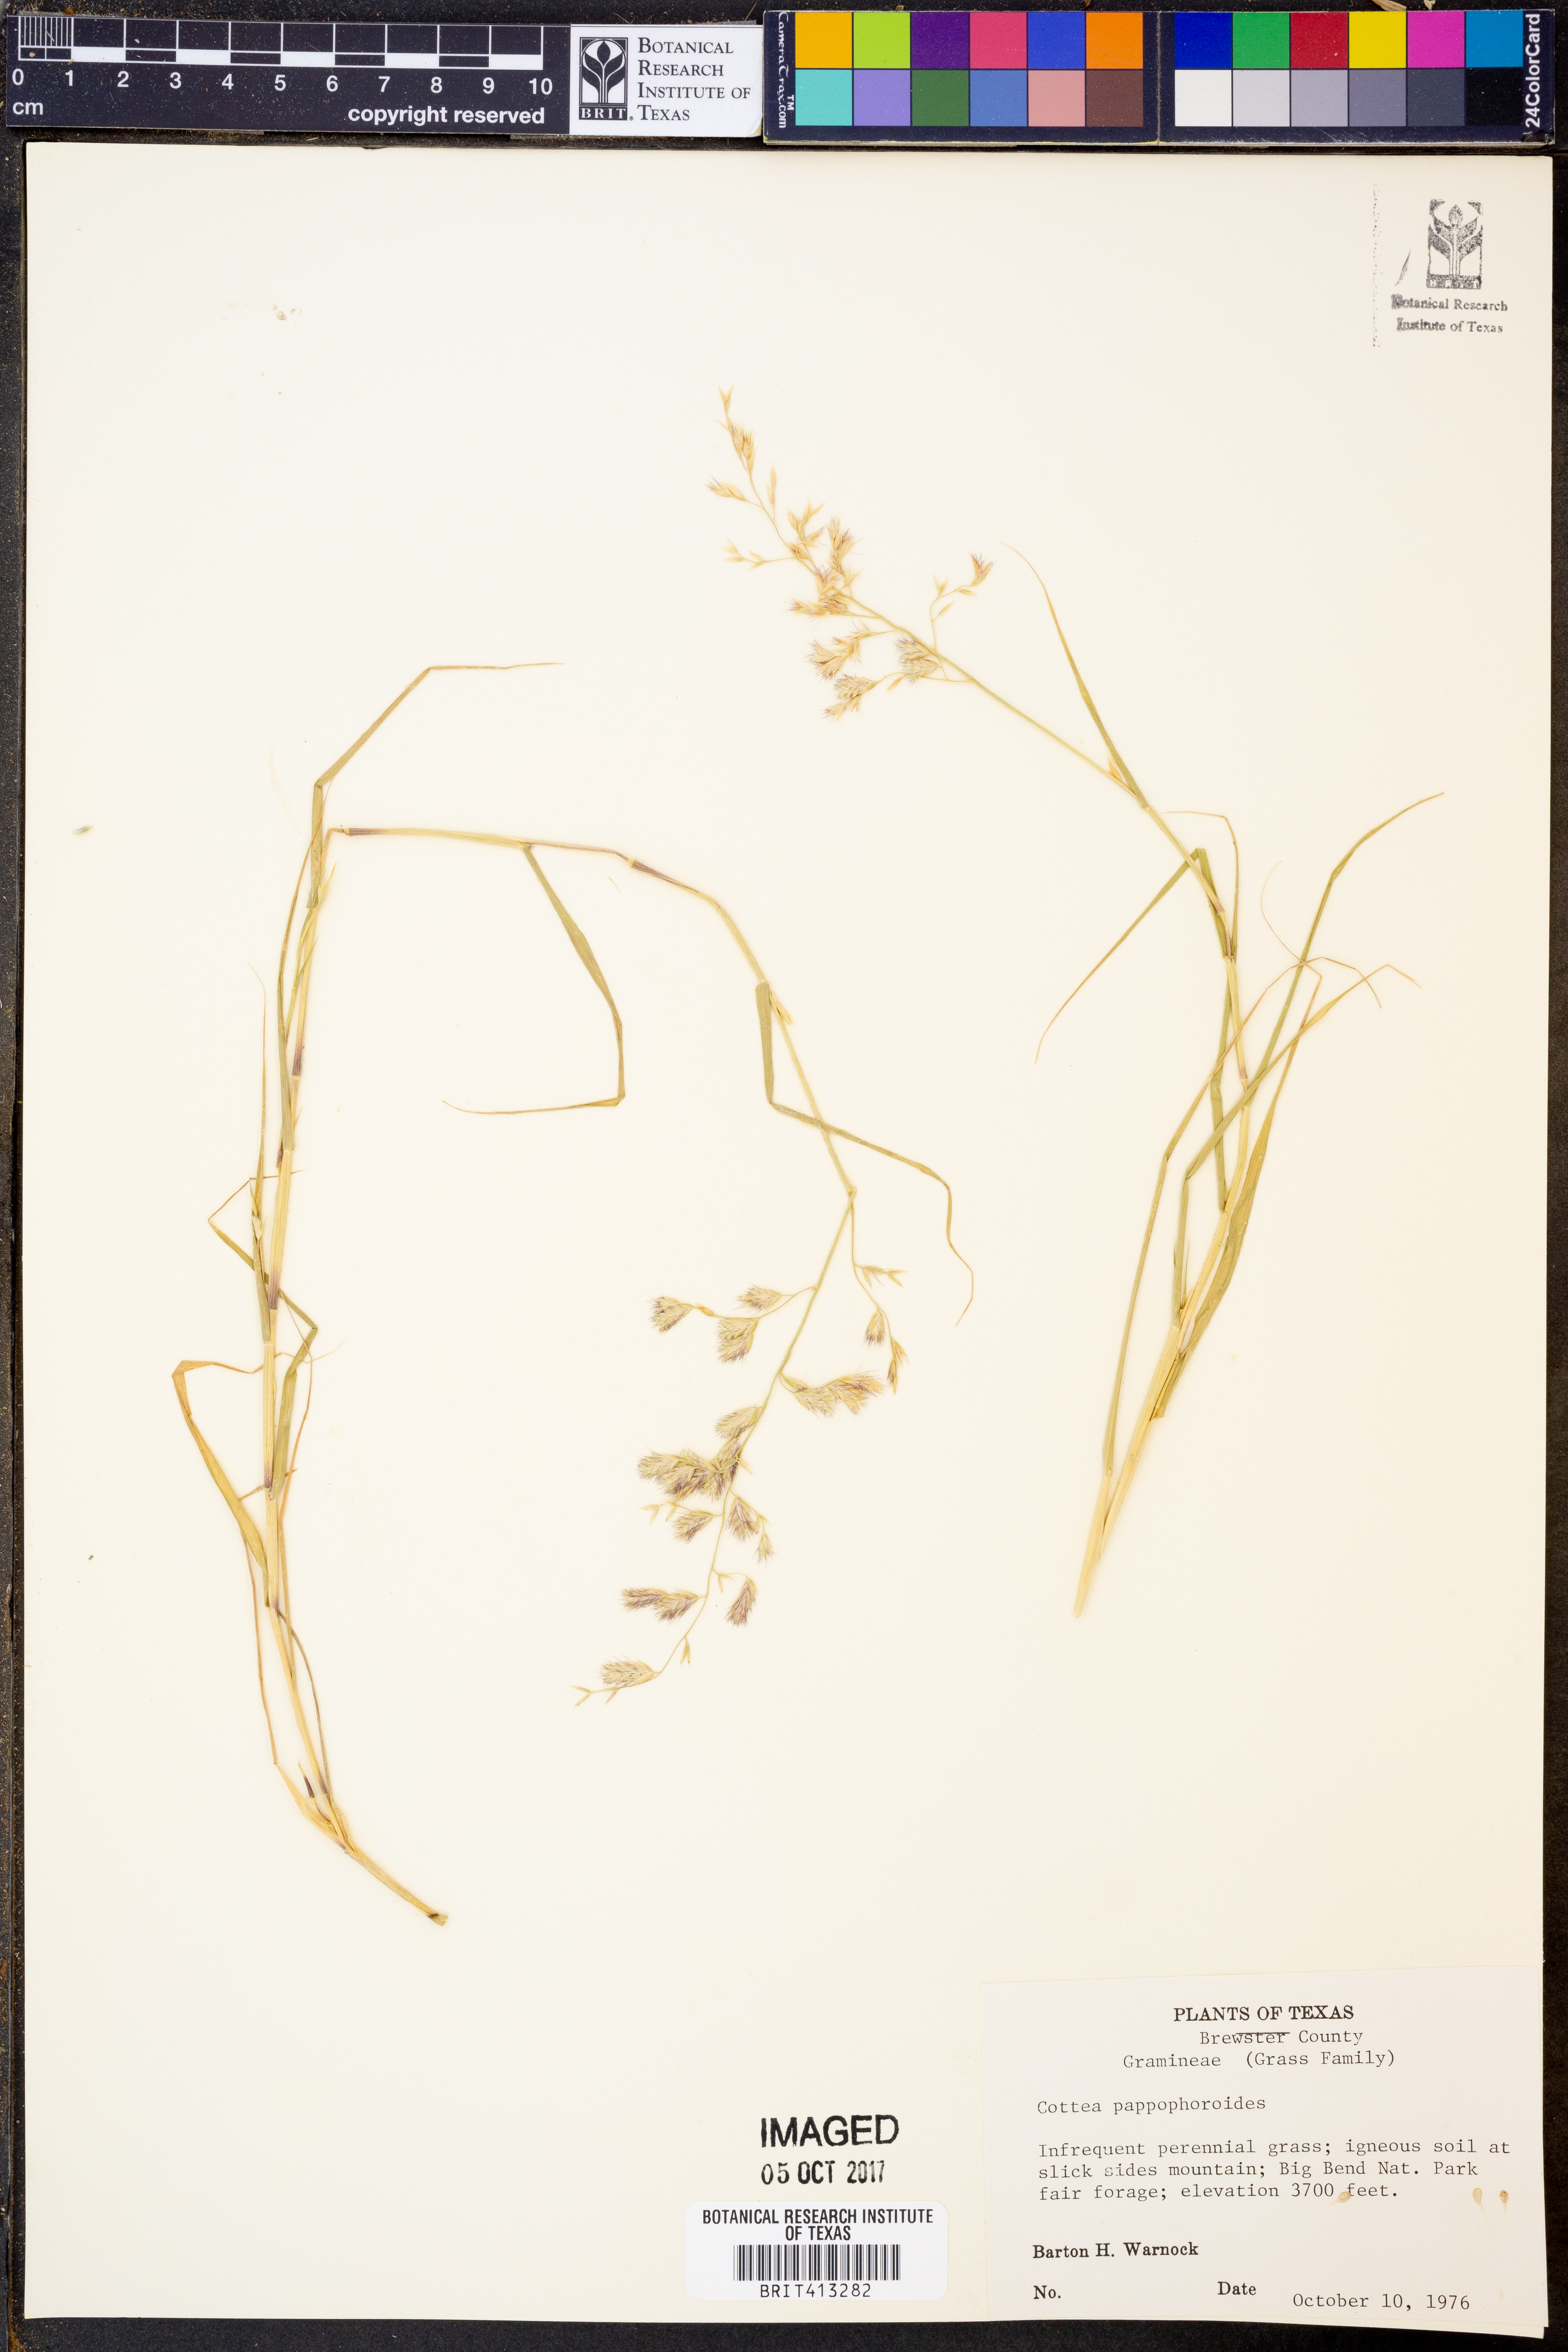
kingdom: Plantae
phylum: Tracheophyta
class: Liliopsida
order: Poales
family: Poaceae
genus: Cottea
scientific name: Cottea pappophoroides
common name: Cotta grass
